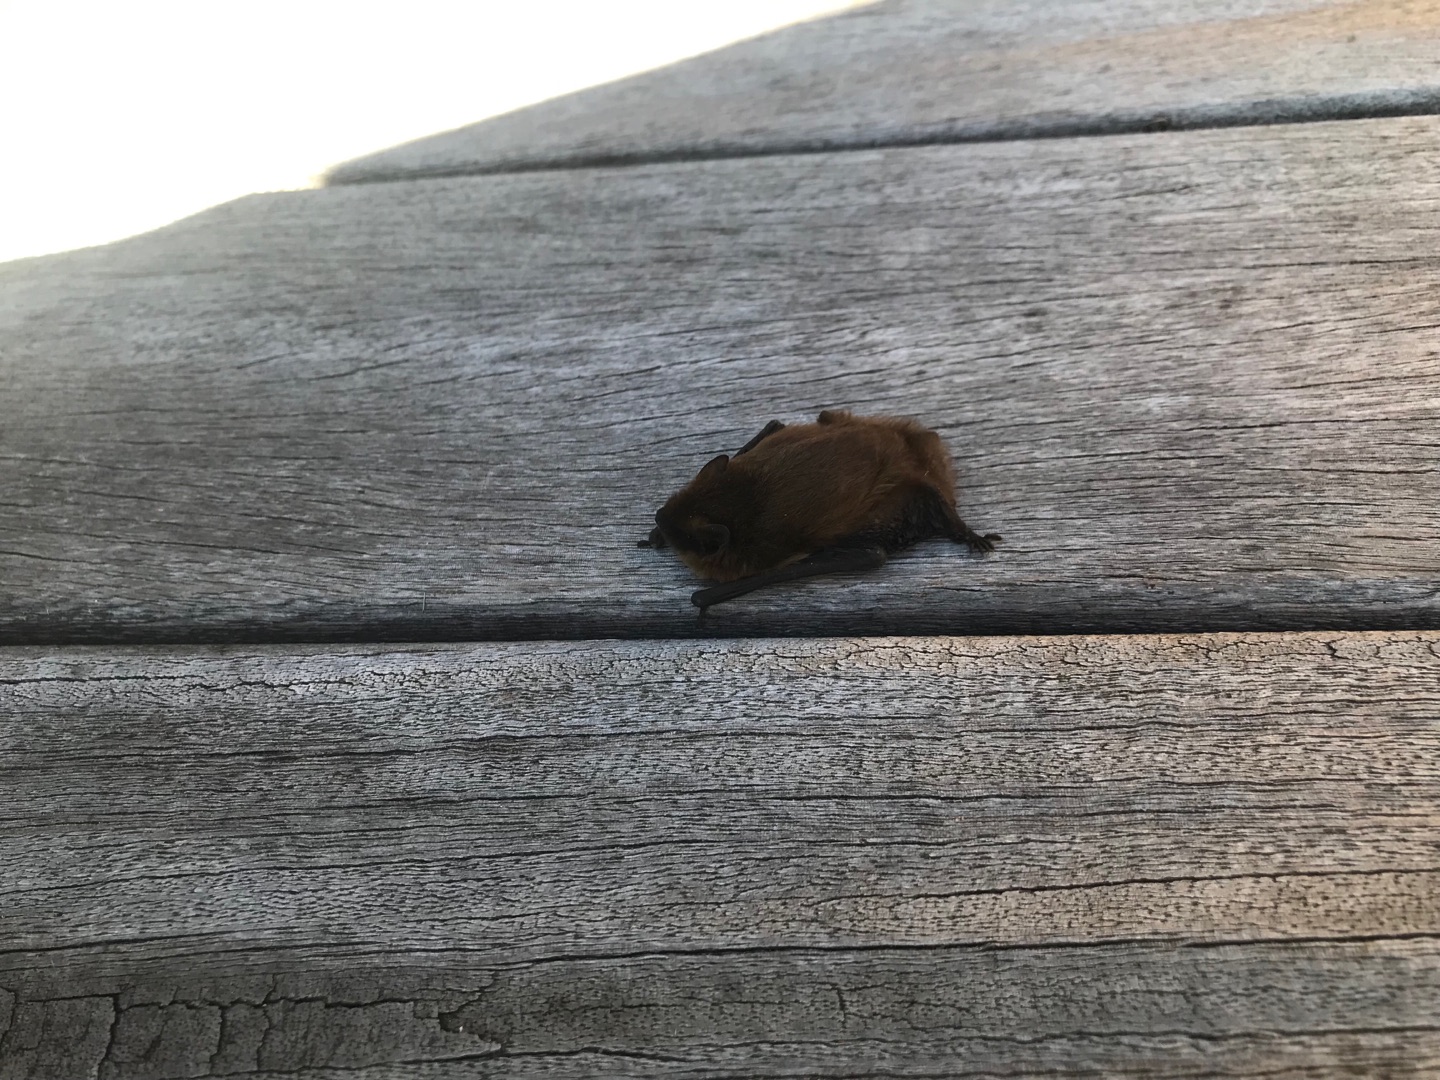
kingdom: Animalia
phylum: Chordata
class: Mammalia
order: Chiroptera
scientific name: Chiroptera
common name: Flagermus
